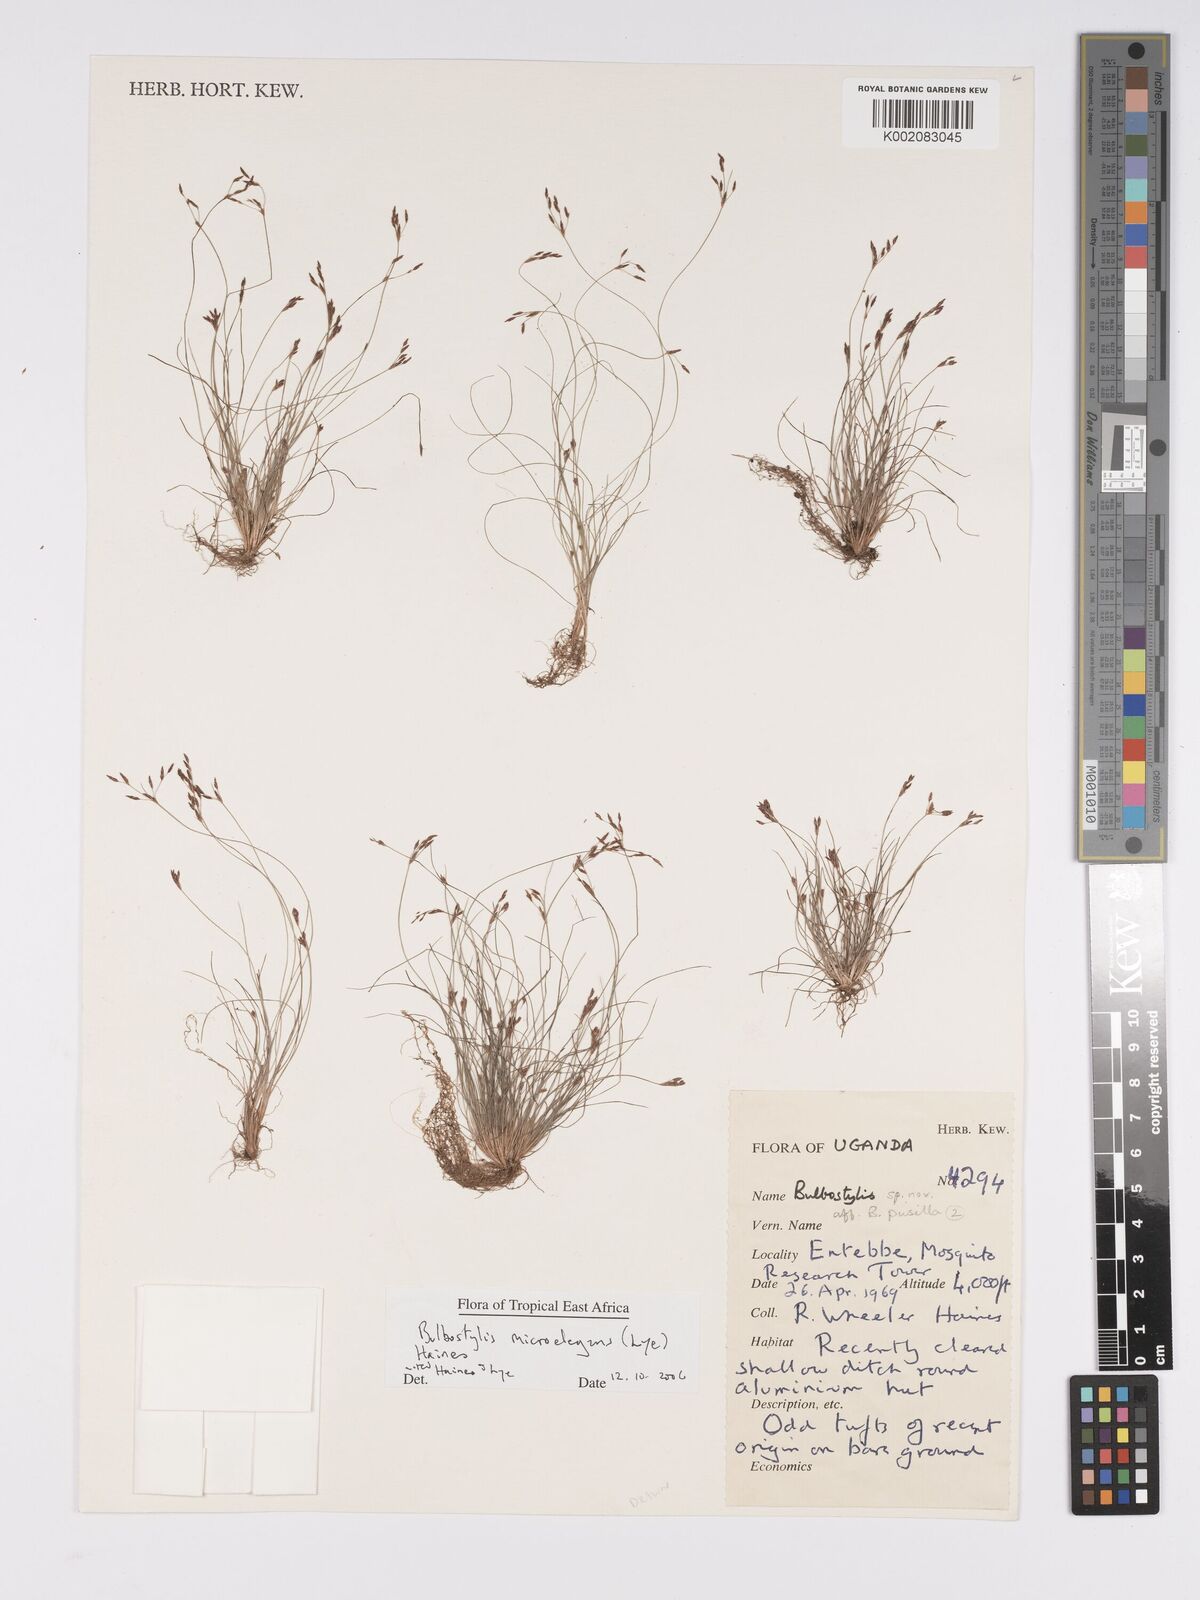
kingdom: Plantae
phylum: Tracheophyta
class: Liliopsida
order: Poales
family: Cyperaceae
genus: Bulbostylis
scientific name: Bulbostylis microelegans
